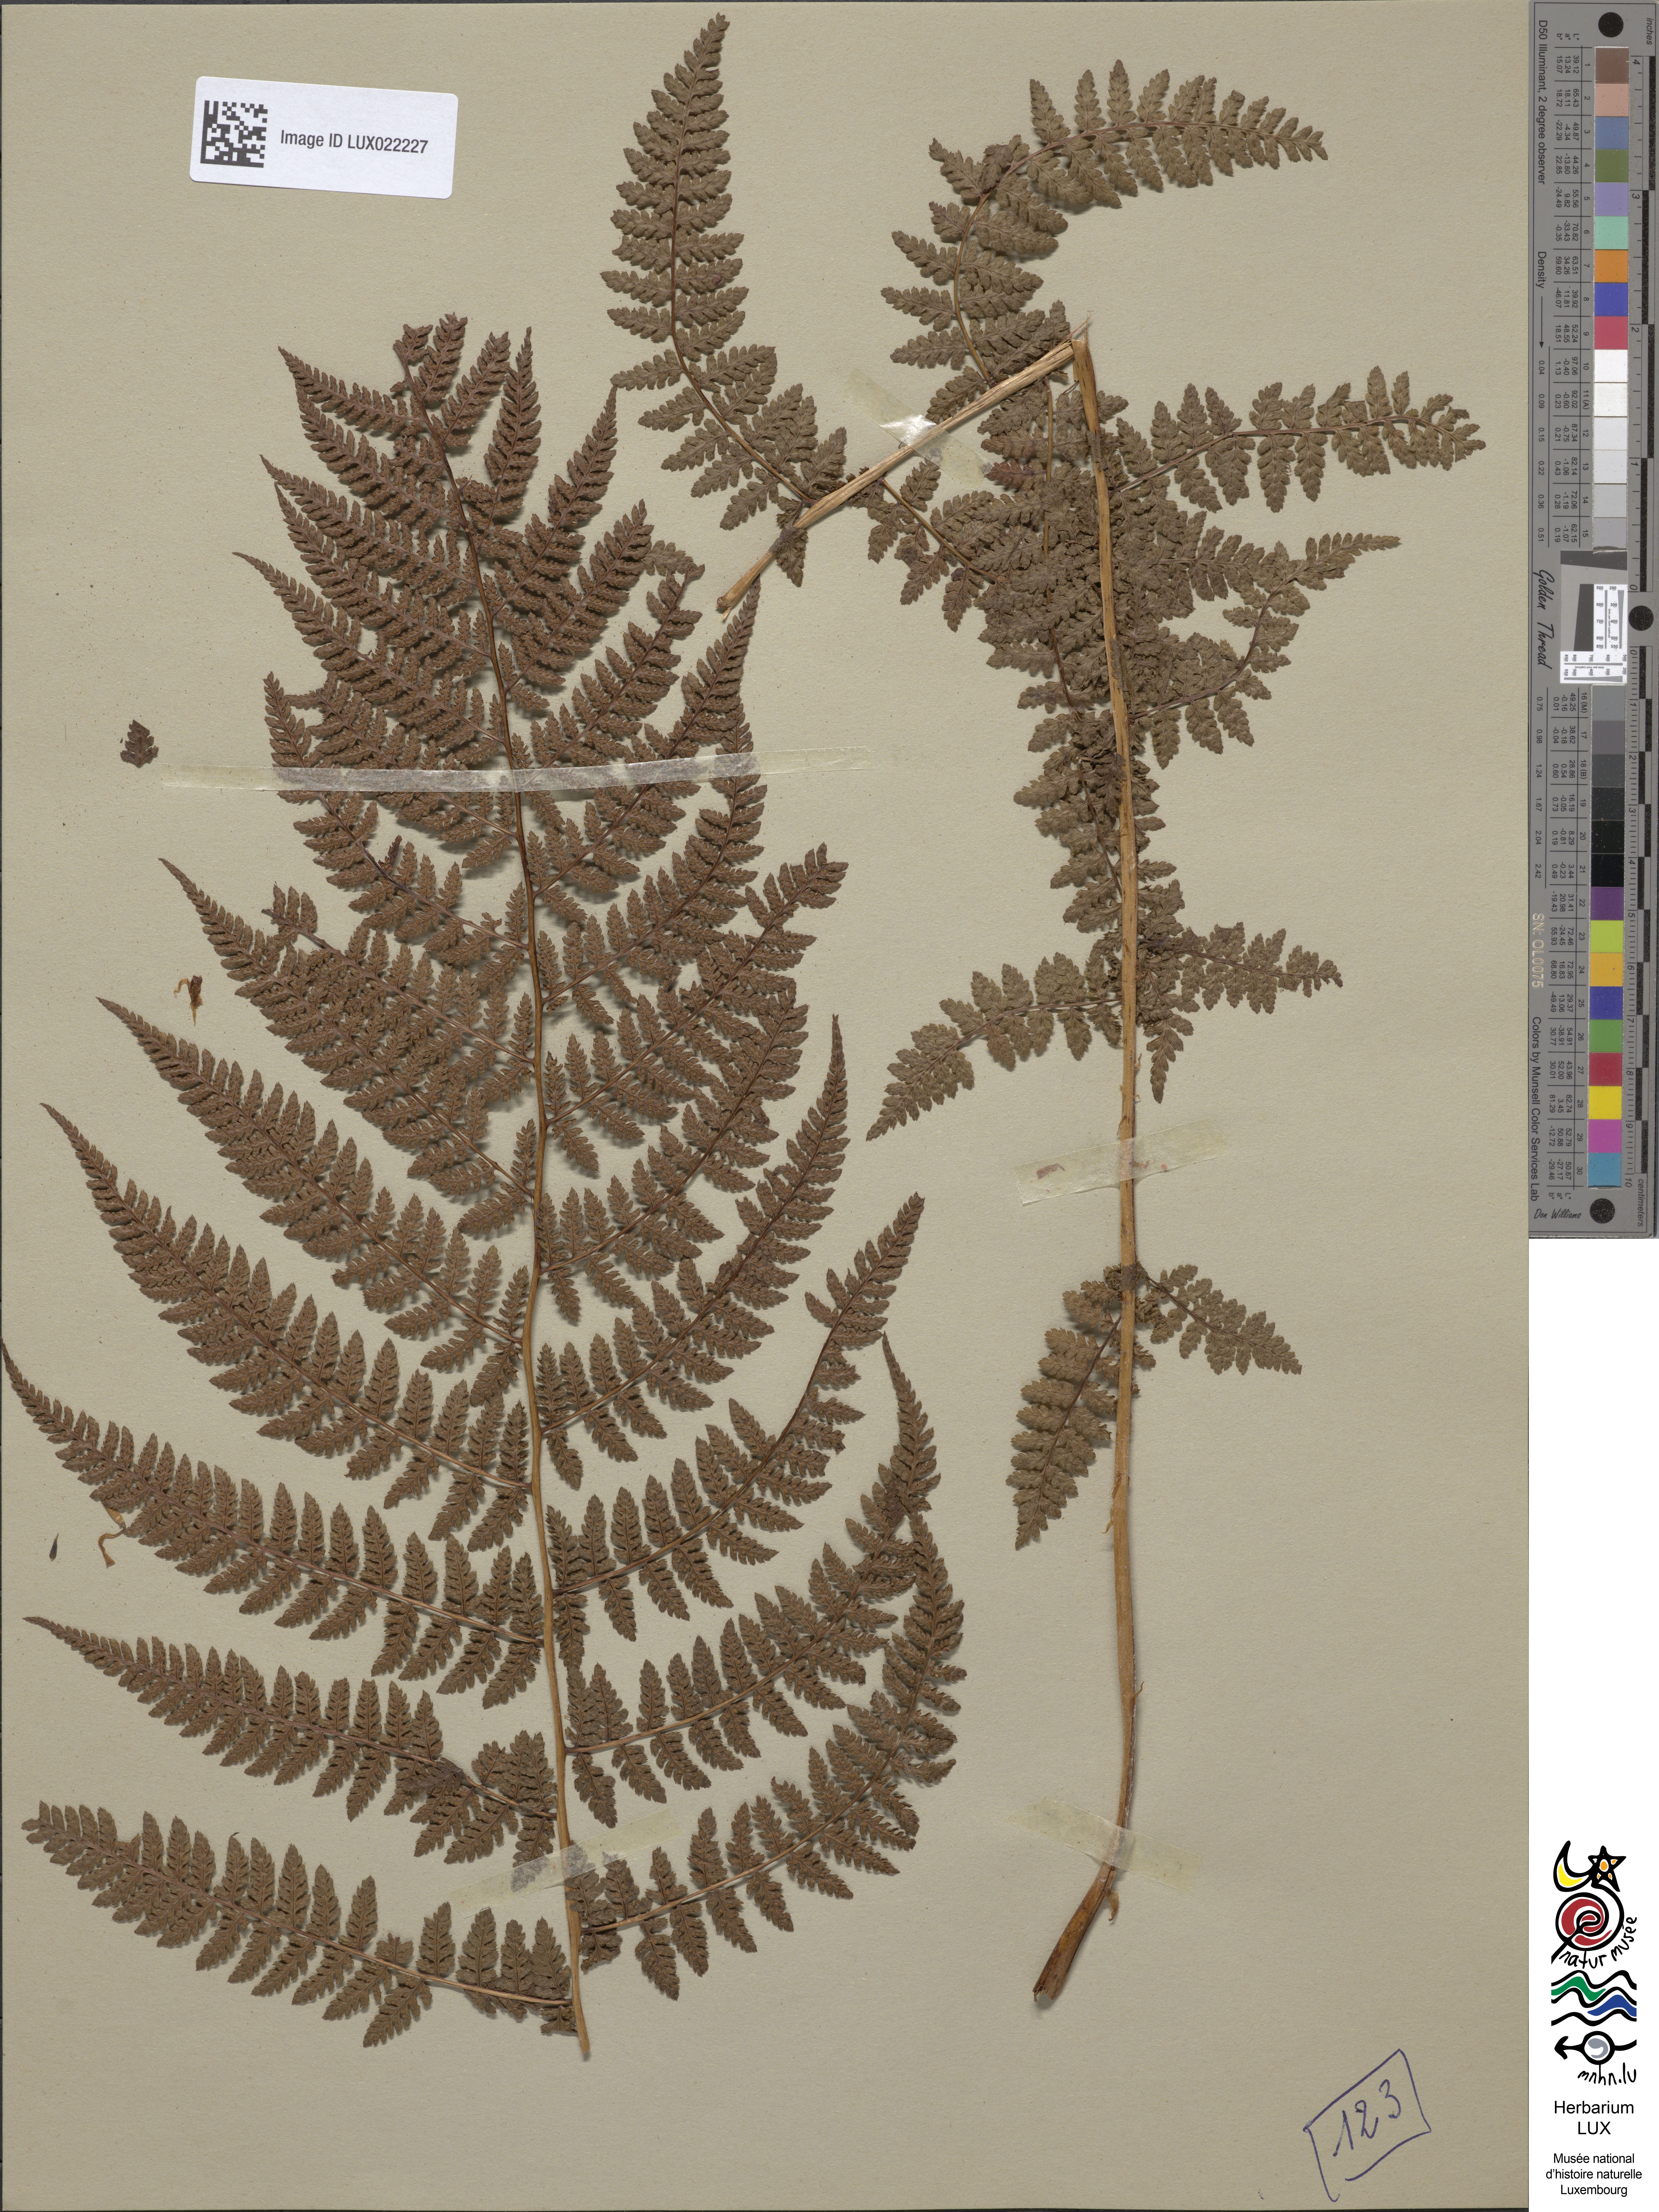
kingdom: Plantae
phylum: Tracheophyta
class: Polypodiopsida
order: Polypodiales
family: Athyriaceae
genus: Pseudathyrium
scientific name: Pseudathyrium alpestre
